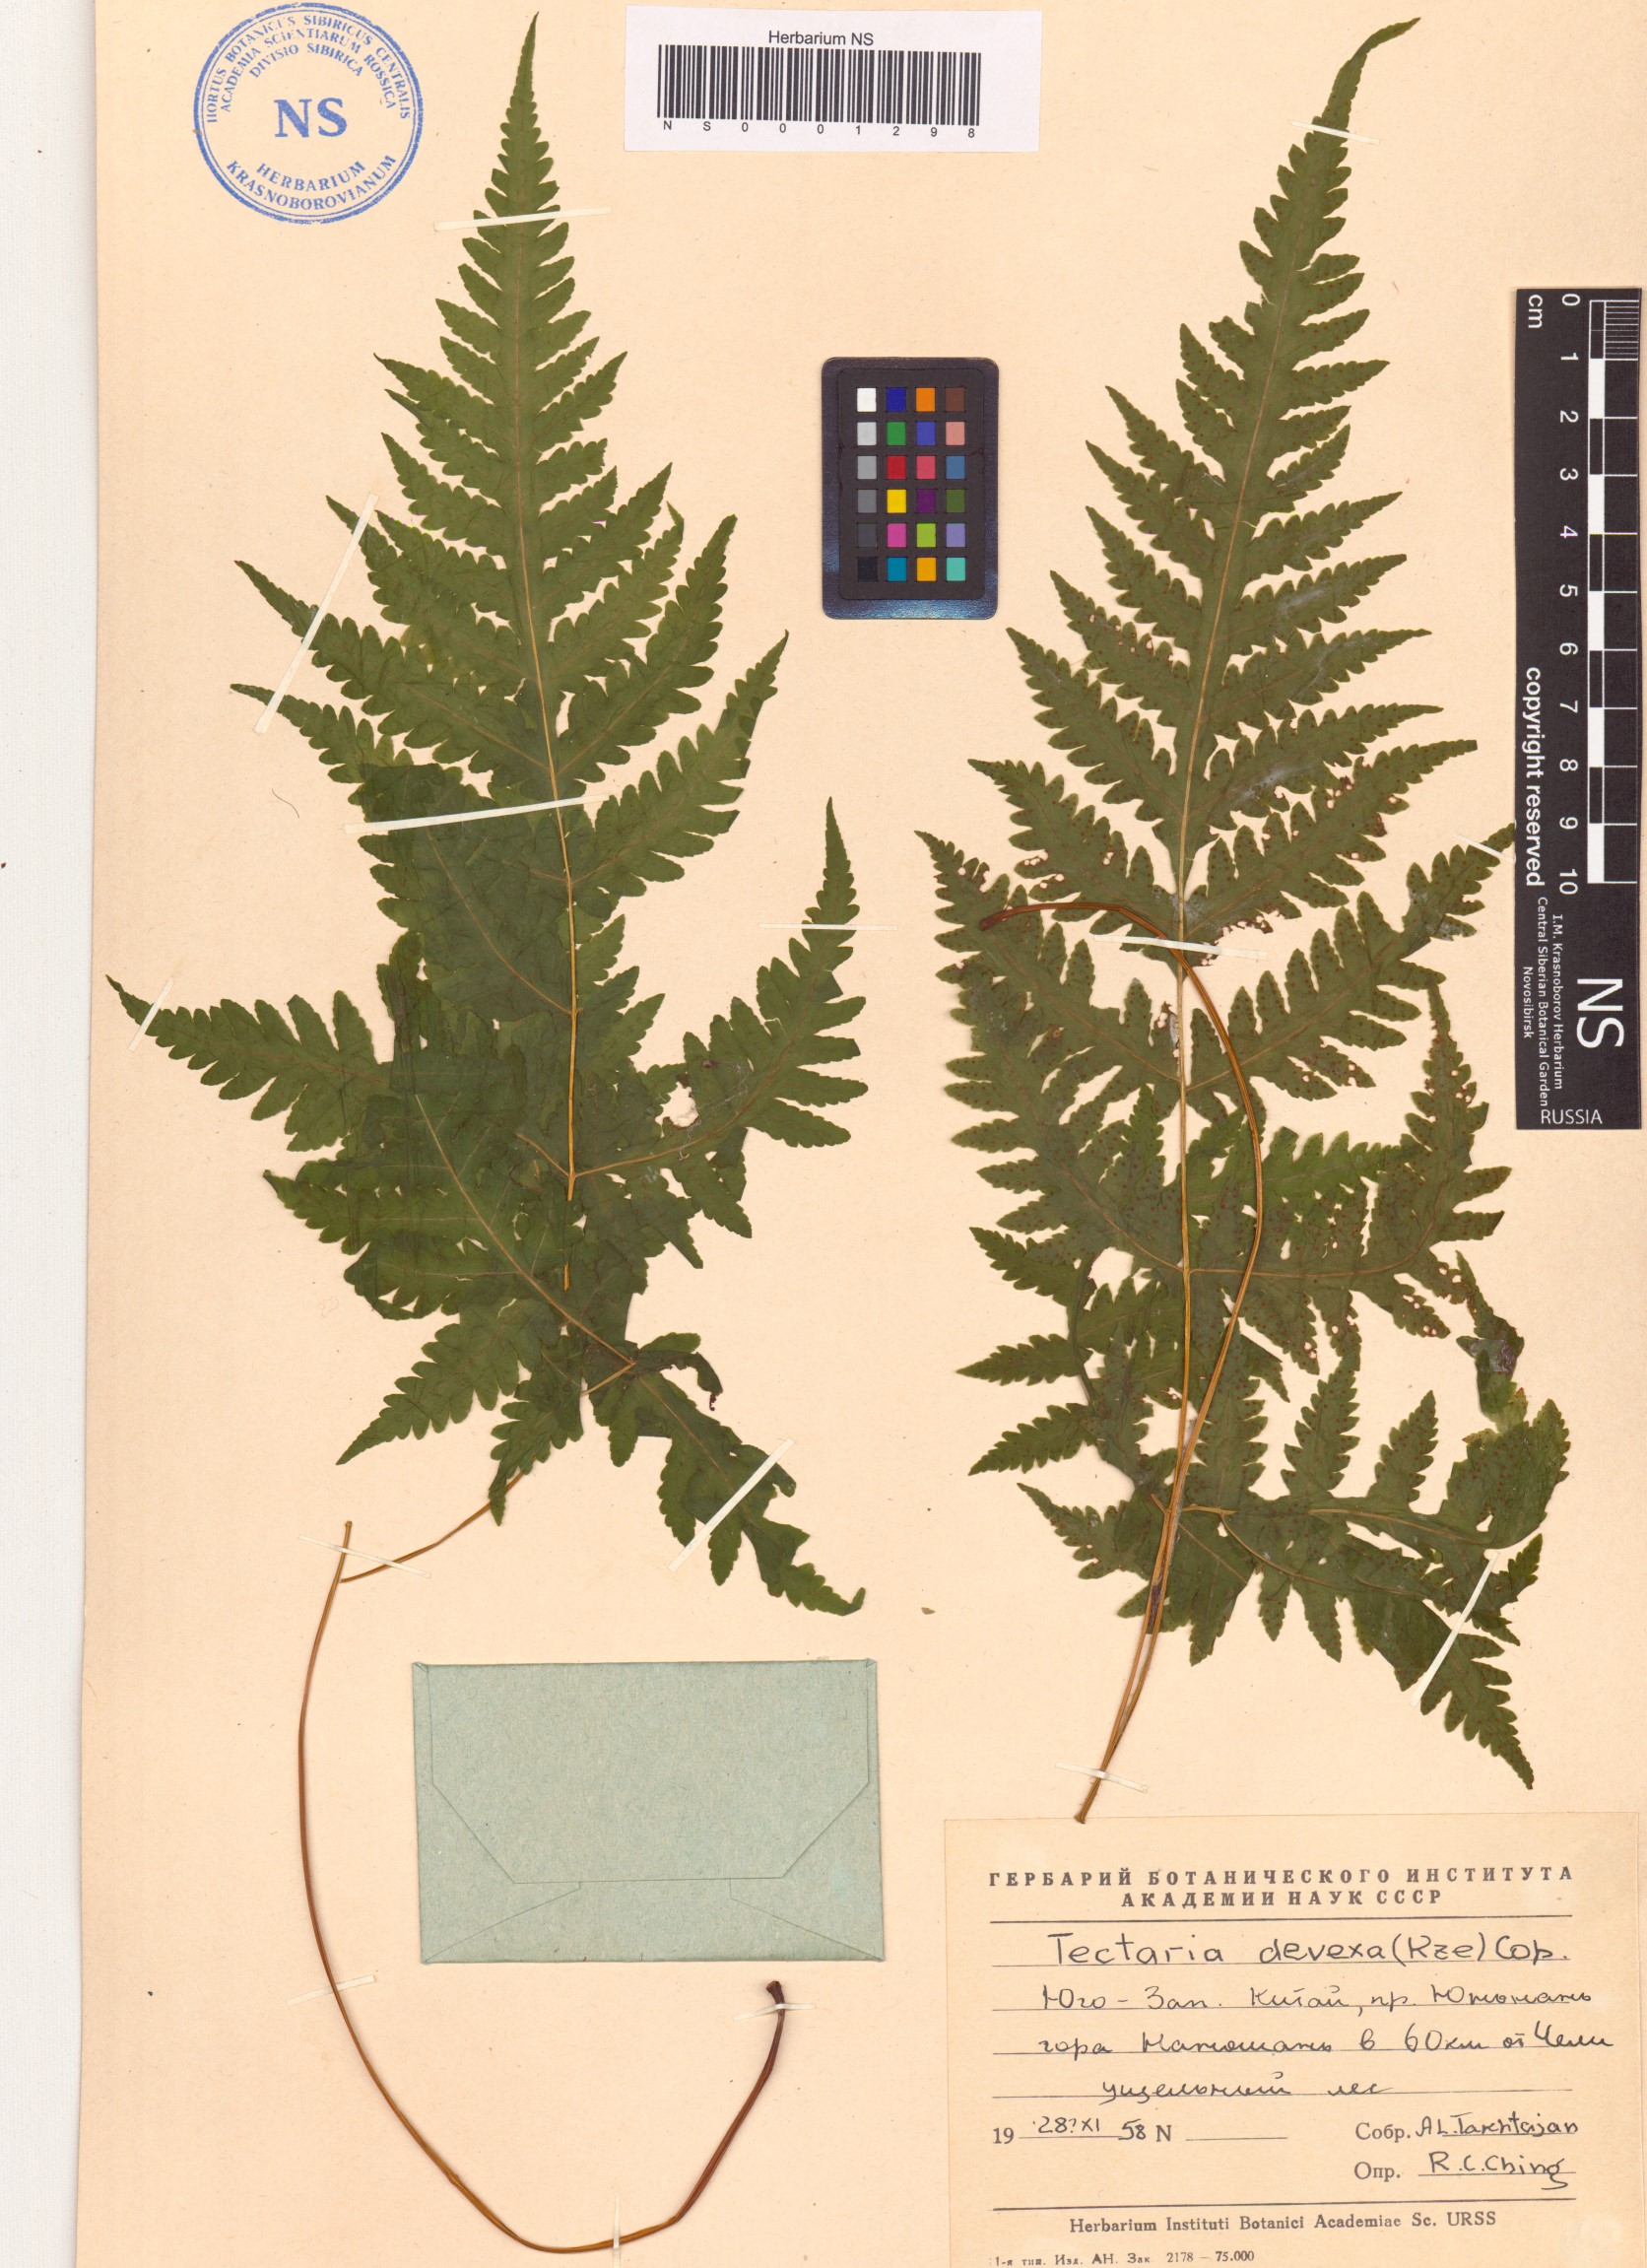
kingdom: Plantae
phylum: Tracheophyta
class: Polypodiopsida
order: Polypodiales
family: Tectariaceae
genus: Tectaria
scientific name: Tectaria membranacea
